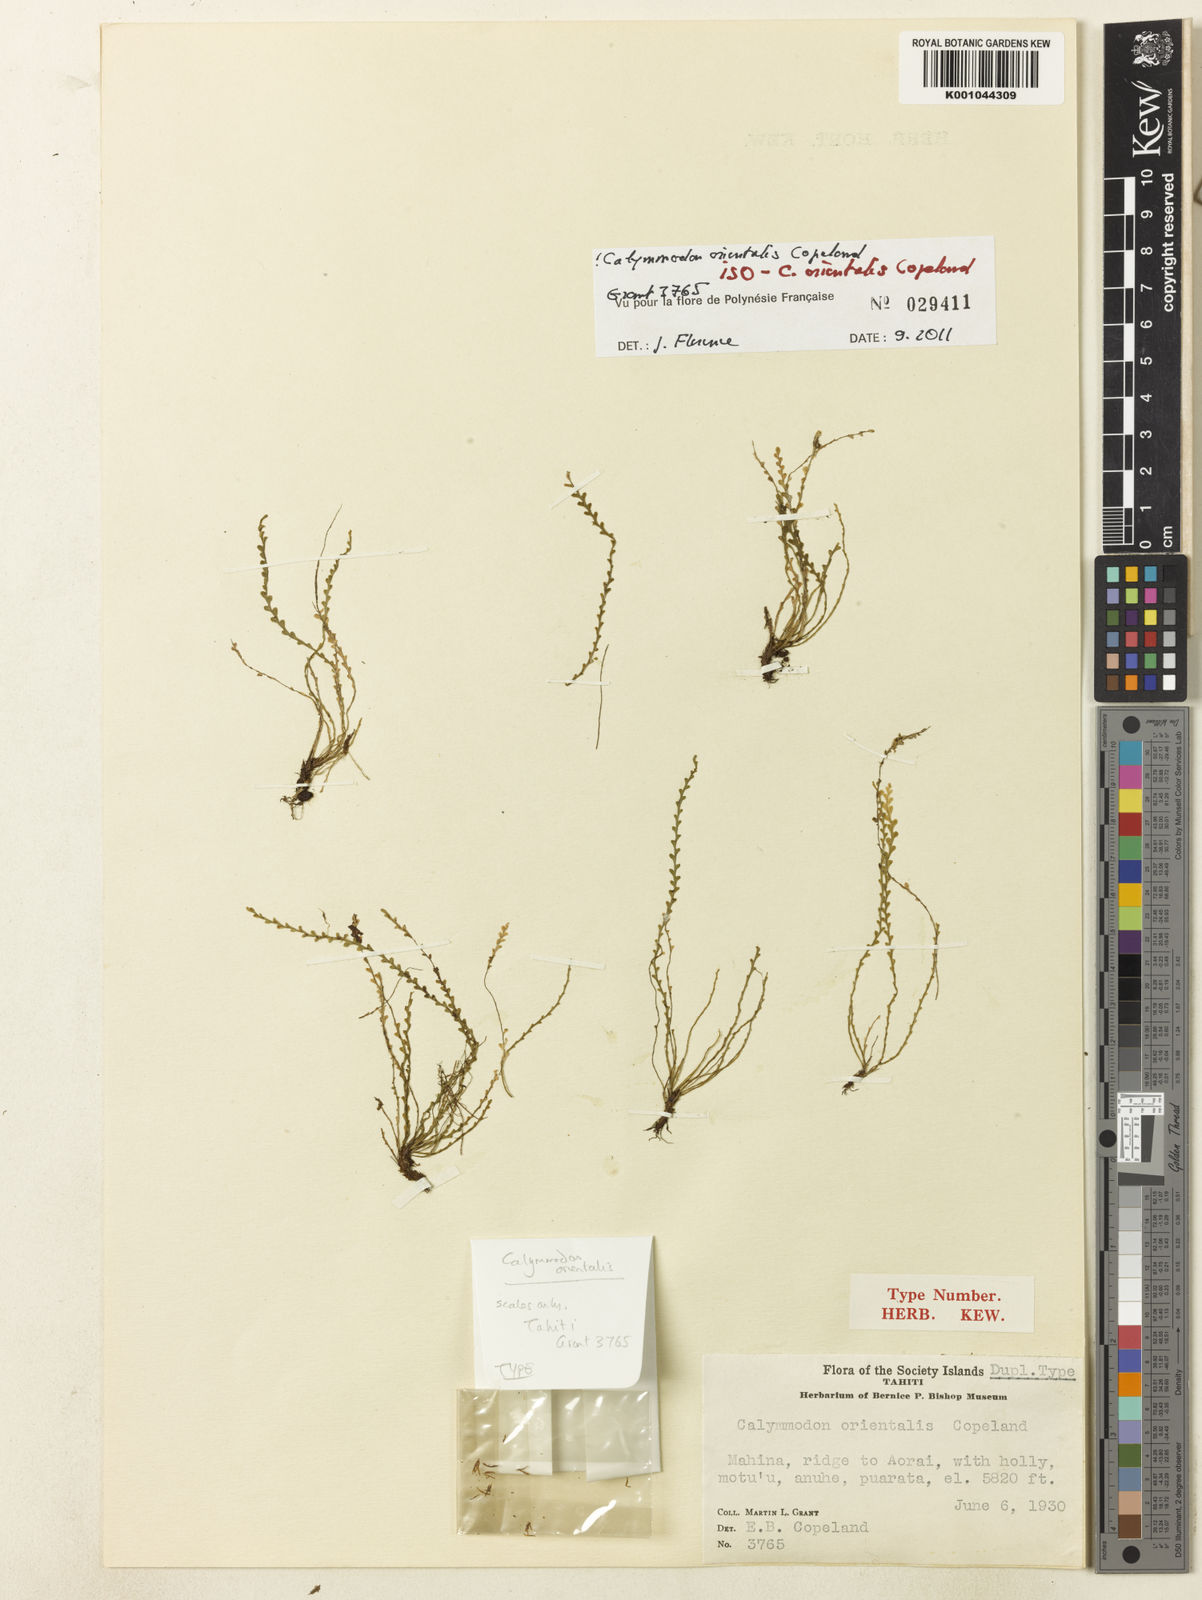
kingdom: Plantae
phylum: Tracheophyta
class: Polypodiopsida
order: Polypodiales
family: Polypodiaceae
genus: Calymmodon
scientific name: Calymmodon grantii
